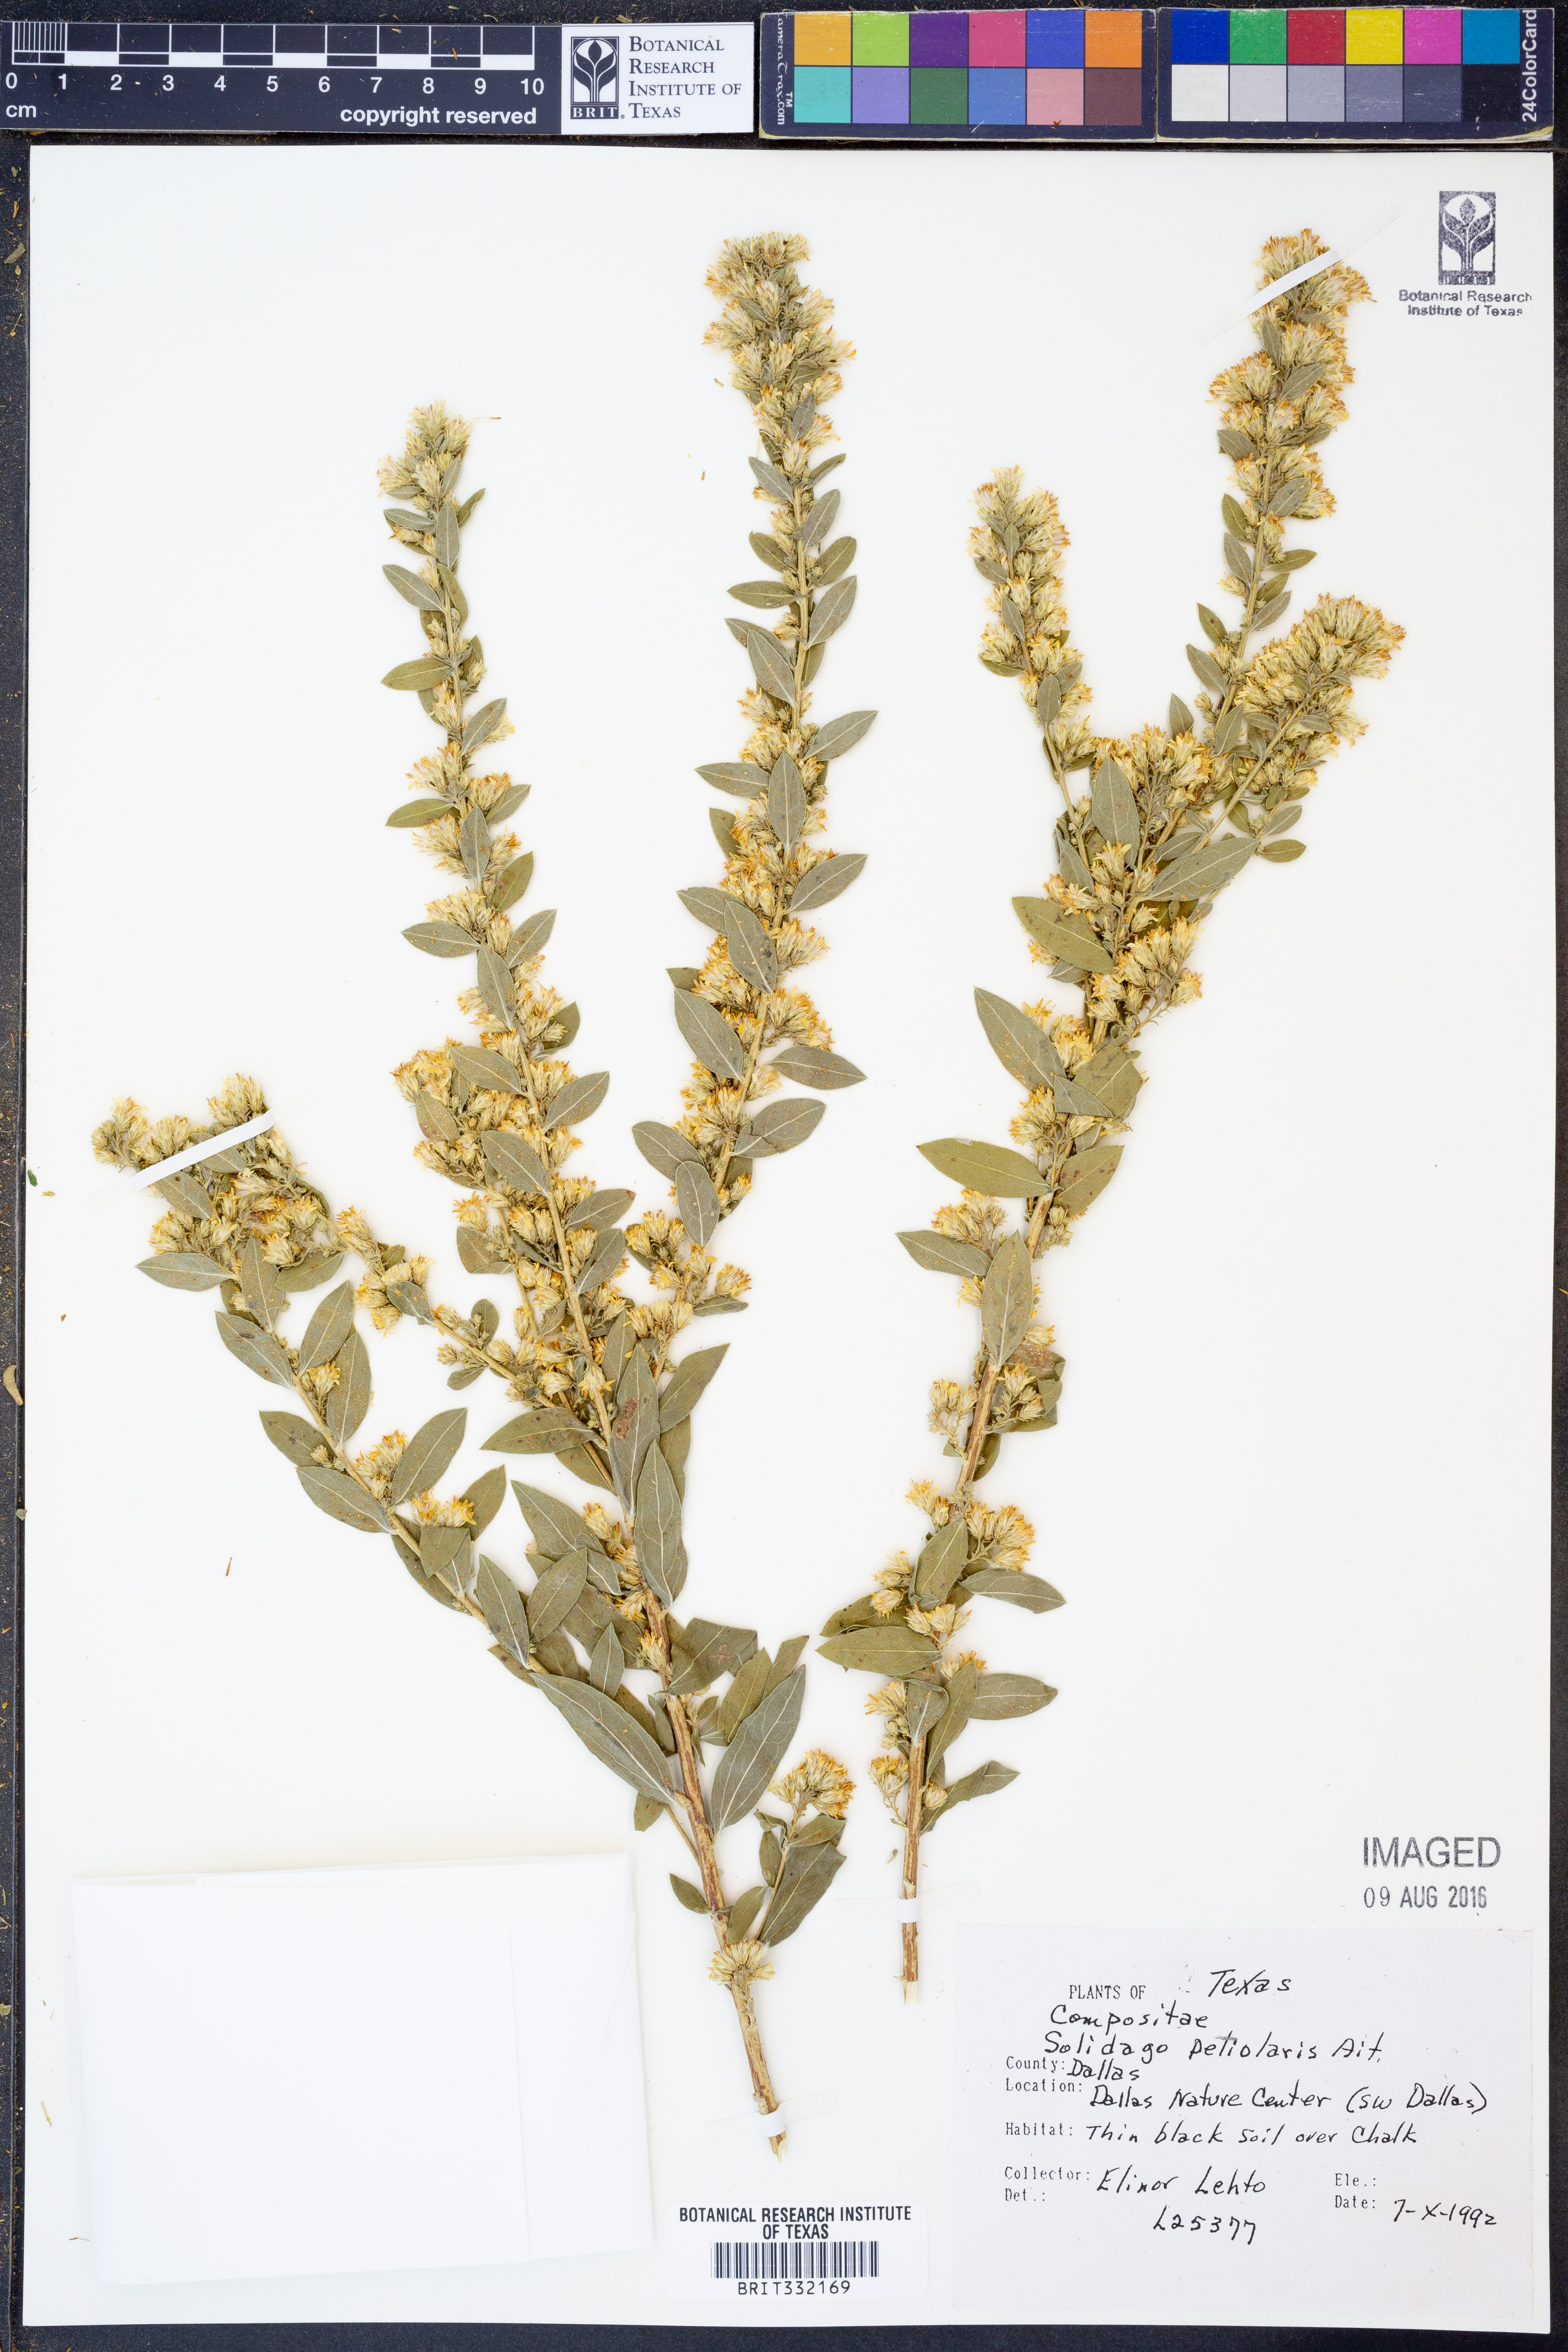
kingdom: Plantae
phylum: Tracheophyta
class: Magnoliopsida
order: Asterales
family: Asteraceae
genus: Solidago
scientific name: Solidago petiolaris
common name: Downy ragged goldenrod
